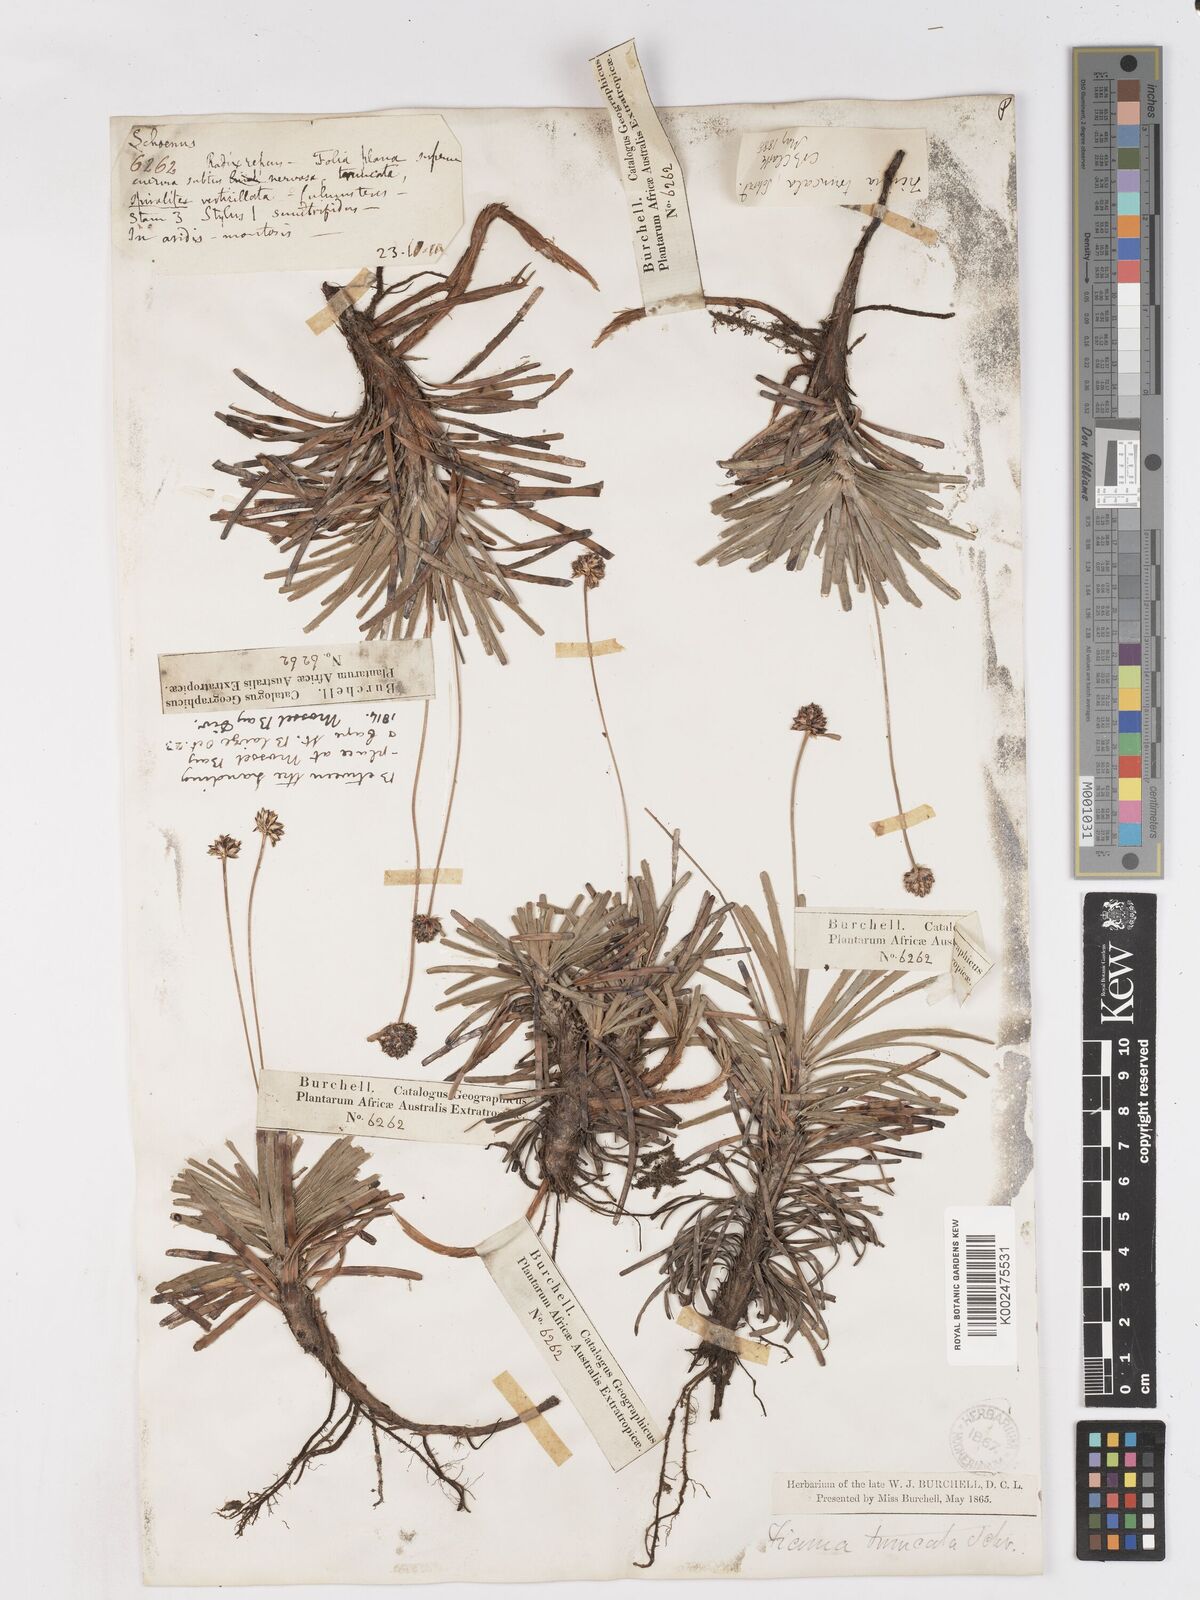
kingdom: Plantae
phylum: Tracheophyta
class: Liliopsida
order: Poales
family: Cyperaceae
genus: Ficinia
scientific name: Ficinia truncata
